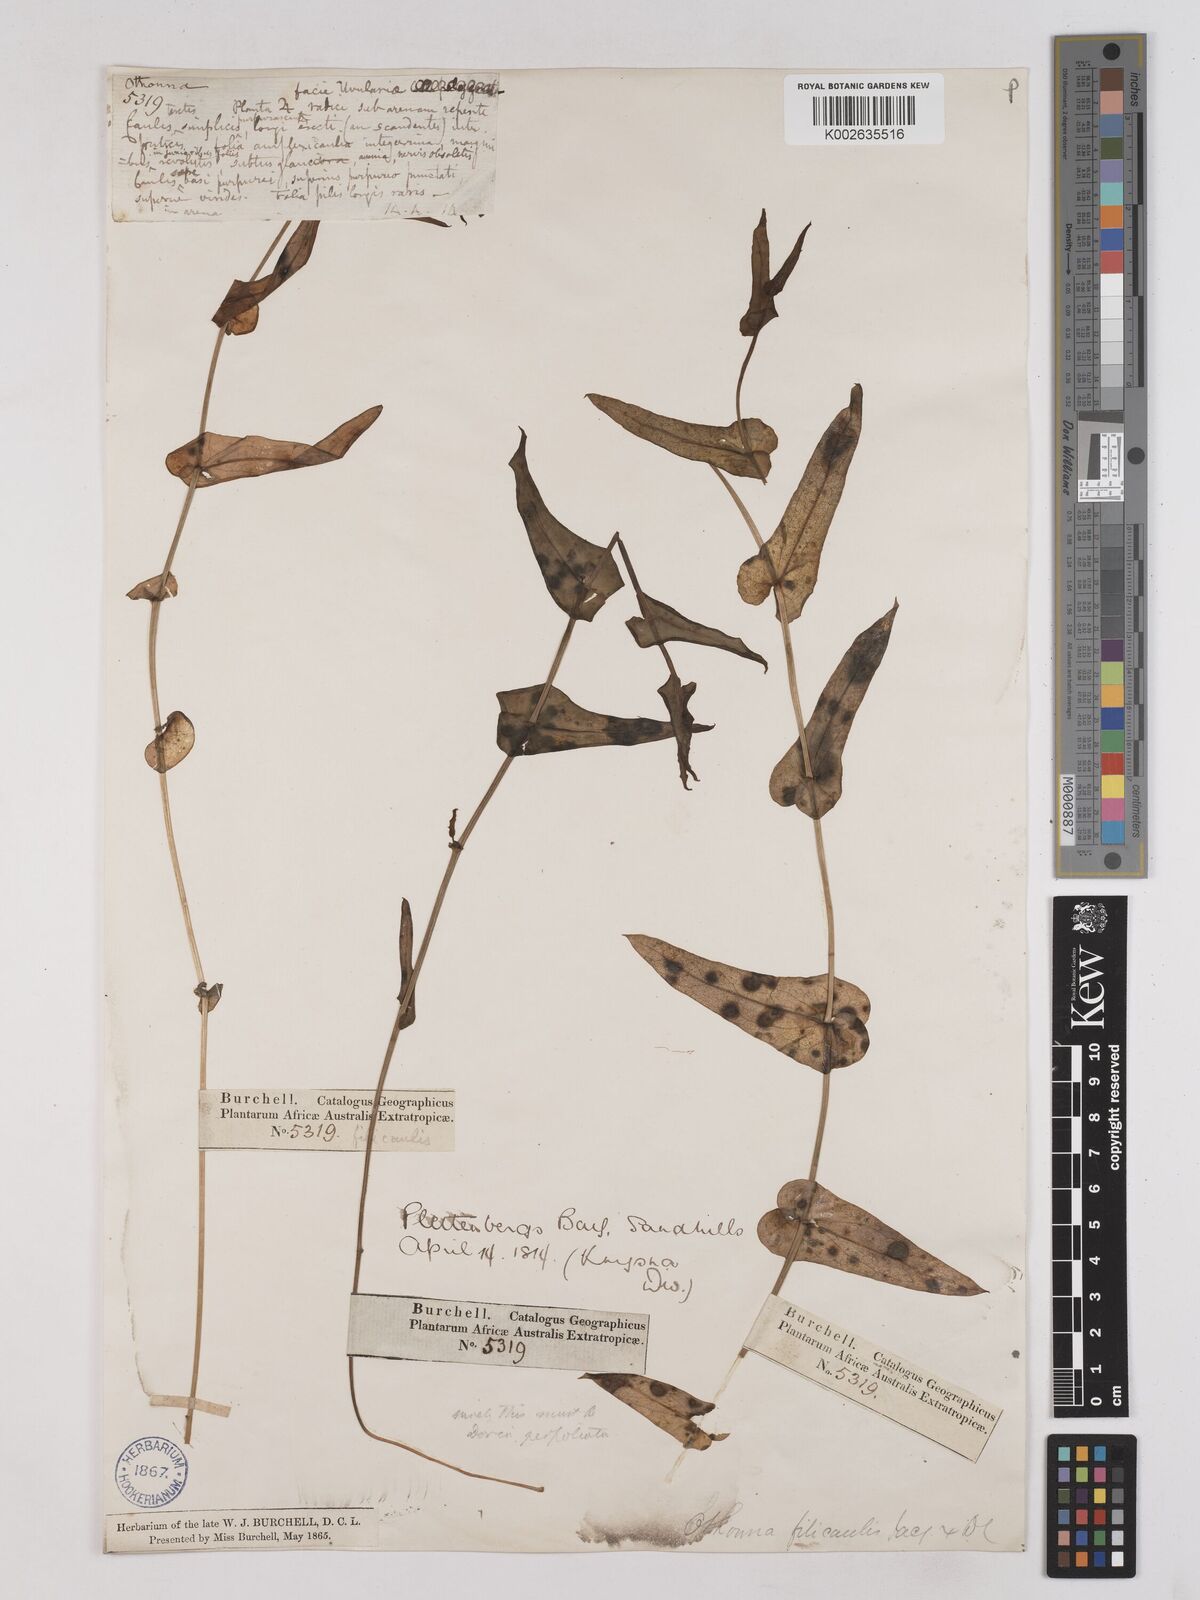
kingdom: Plantae
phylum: Tracheophyta
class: Magnoliopsida
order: Asterales
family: Asteraceae
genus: Othonna
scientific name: Othonna perfoliata
